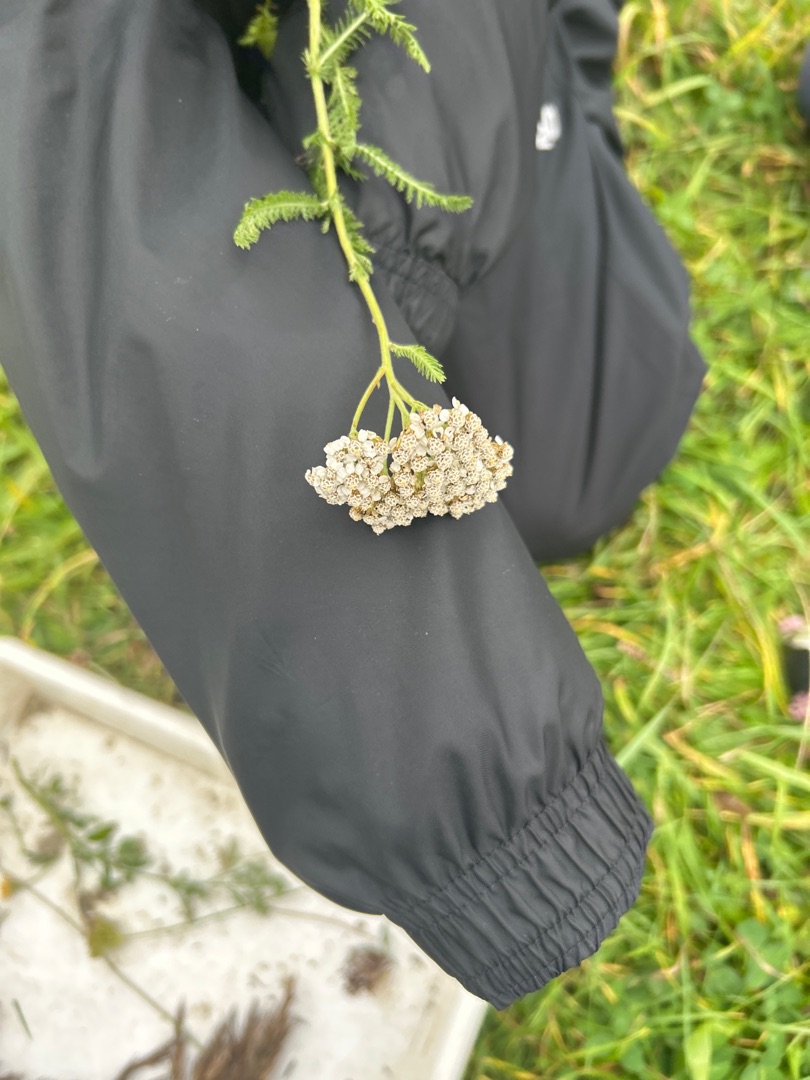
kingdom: Plantae
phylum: Tracheophyta
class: Magnoliopsida
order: Asterales
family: Asteraceae
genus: Achillea
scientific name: Achillea millefolium
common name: Almindelig røllike
